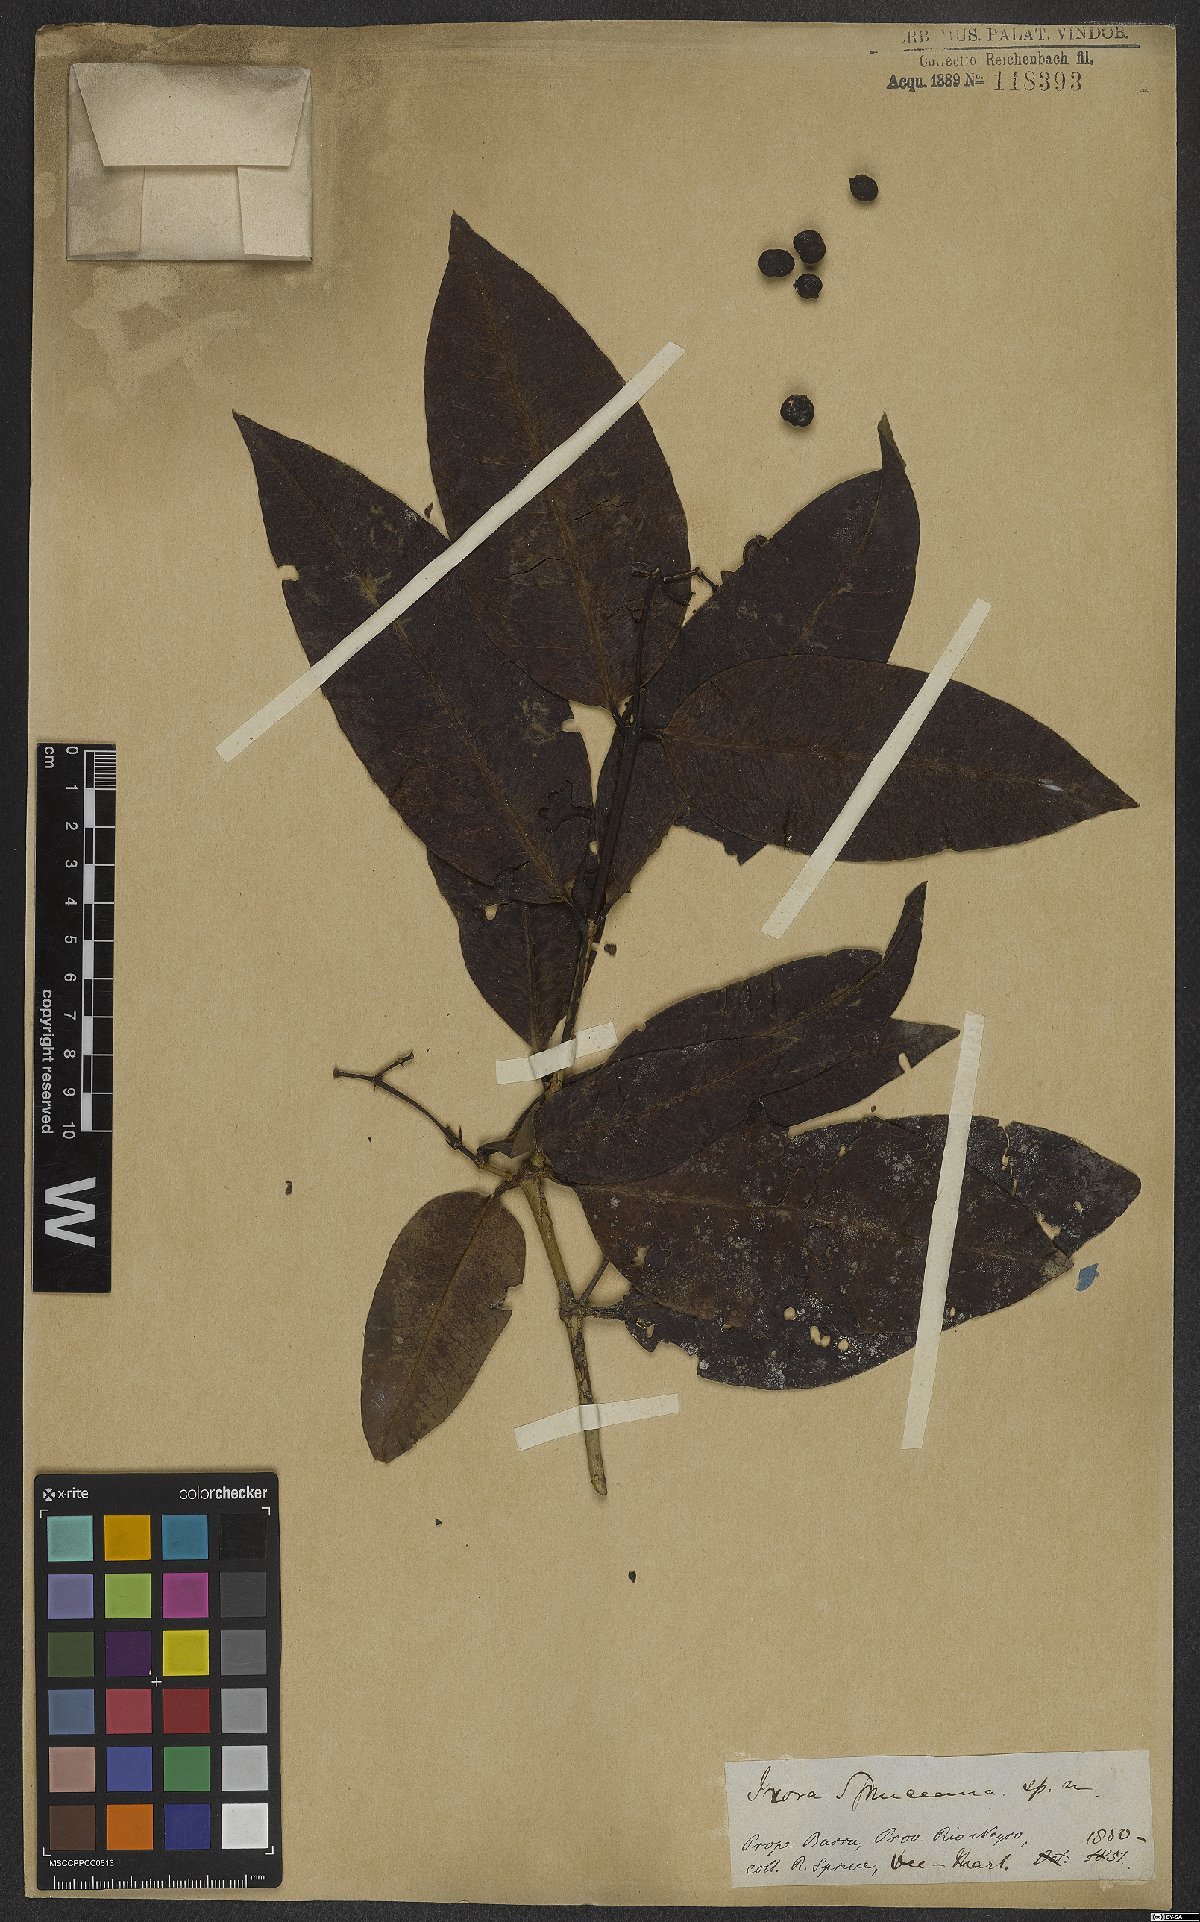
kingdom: Plantae
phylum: Tracheophyta
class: Magnoliopsida
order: Gentianales
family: Rubiaceae
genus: Ixora
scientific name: Ixora spruceana
